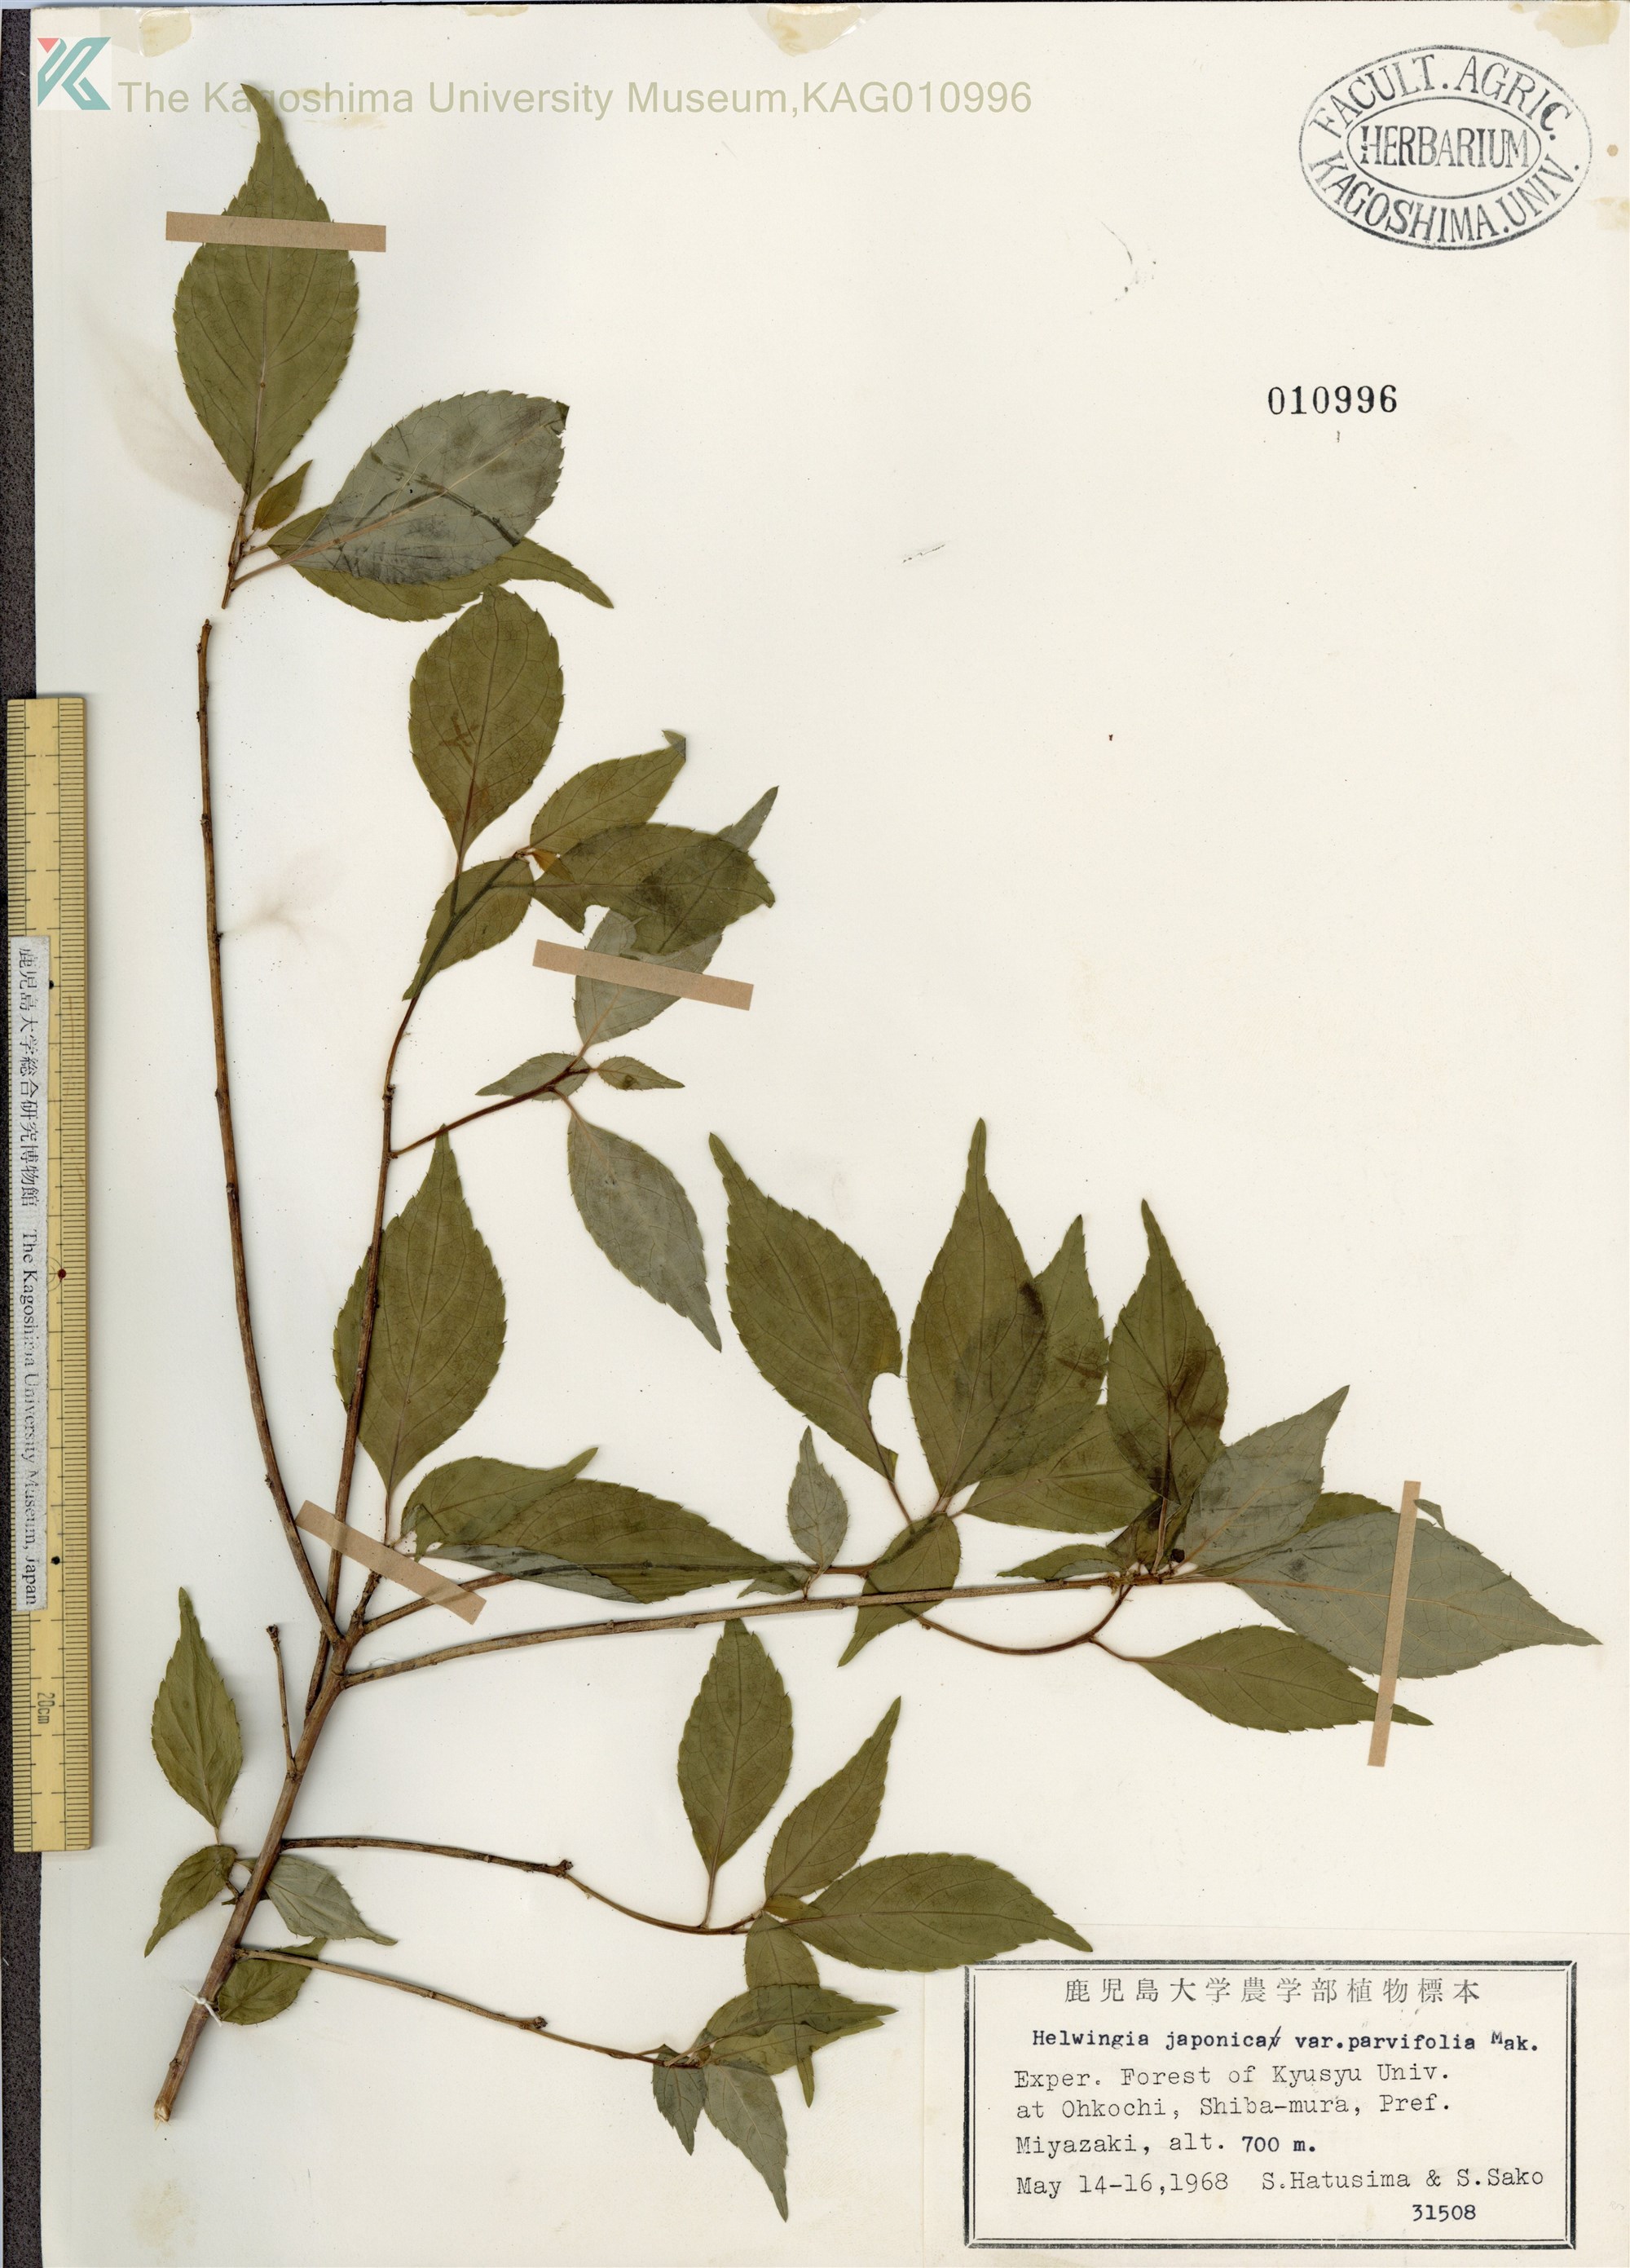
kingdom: Plantae
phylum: Tracheophyta
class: Magnoliopsida
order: Aquifoliales
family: Helwingiaceae
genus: Helwingia
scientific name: Helwingia japonica
